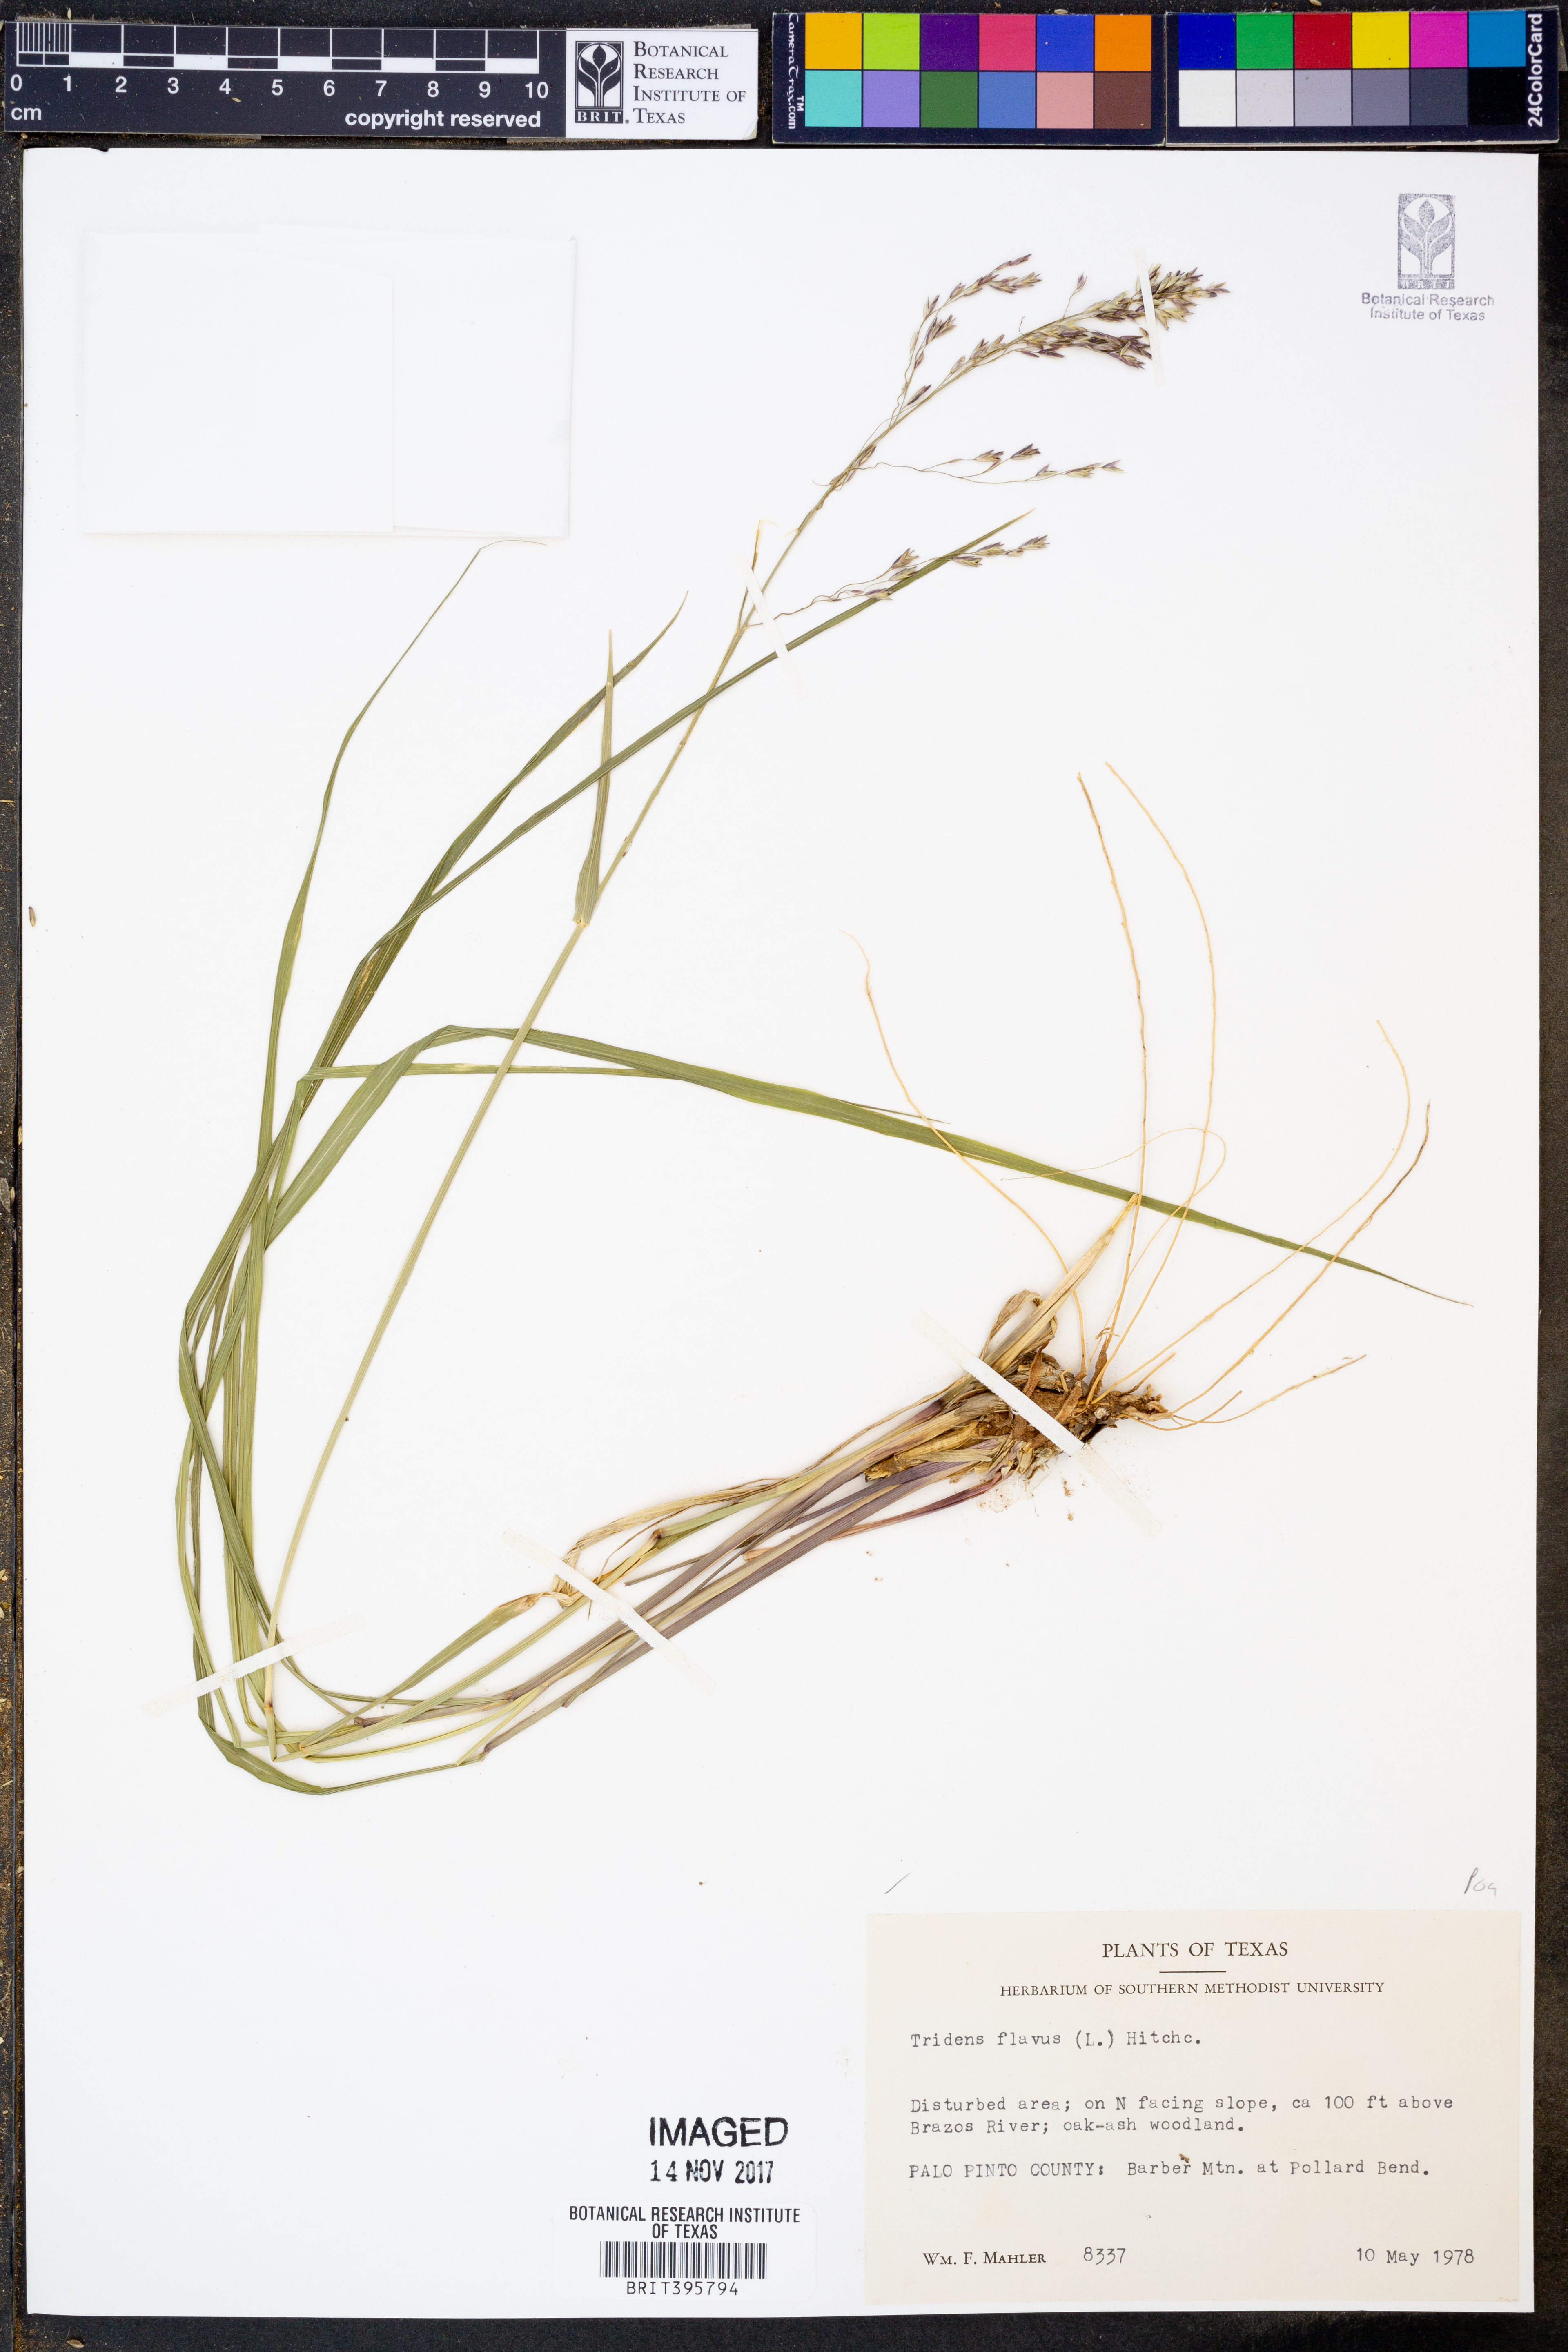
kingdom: Plantae
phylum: Tracheophyta
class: Liliopsida
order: Poales
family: Poaceae
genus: Tridens
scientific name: Tridens flavus
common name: Purpletop
